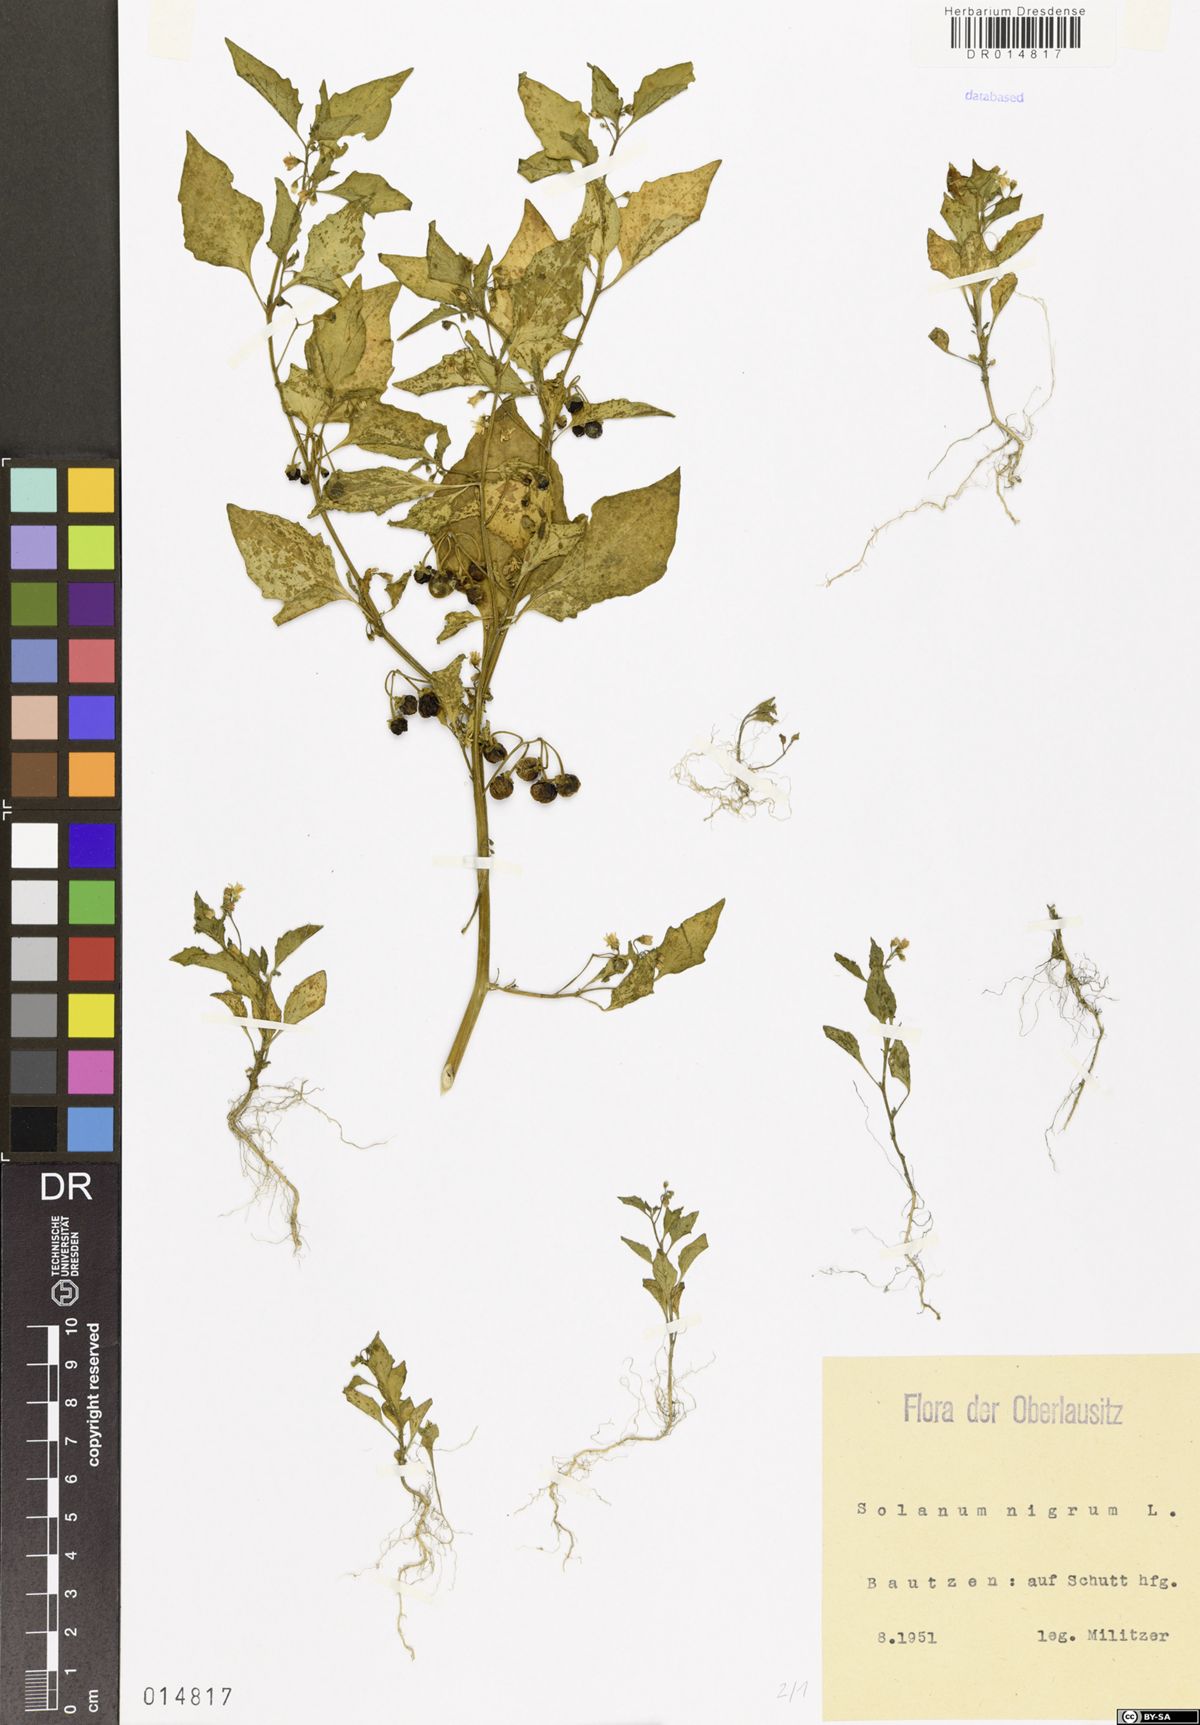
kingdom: Plantae
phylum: Tracheophyta
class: Magnoliopsida
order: Solanales
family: Solanaceae
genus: Solanum
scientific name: Solanum nigrum
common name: Black nightshade
